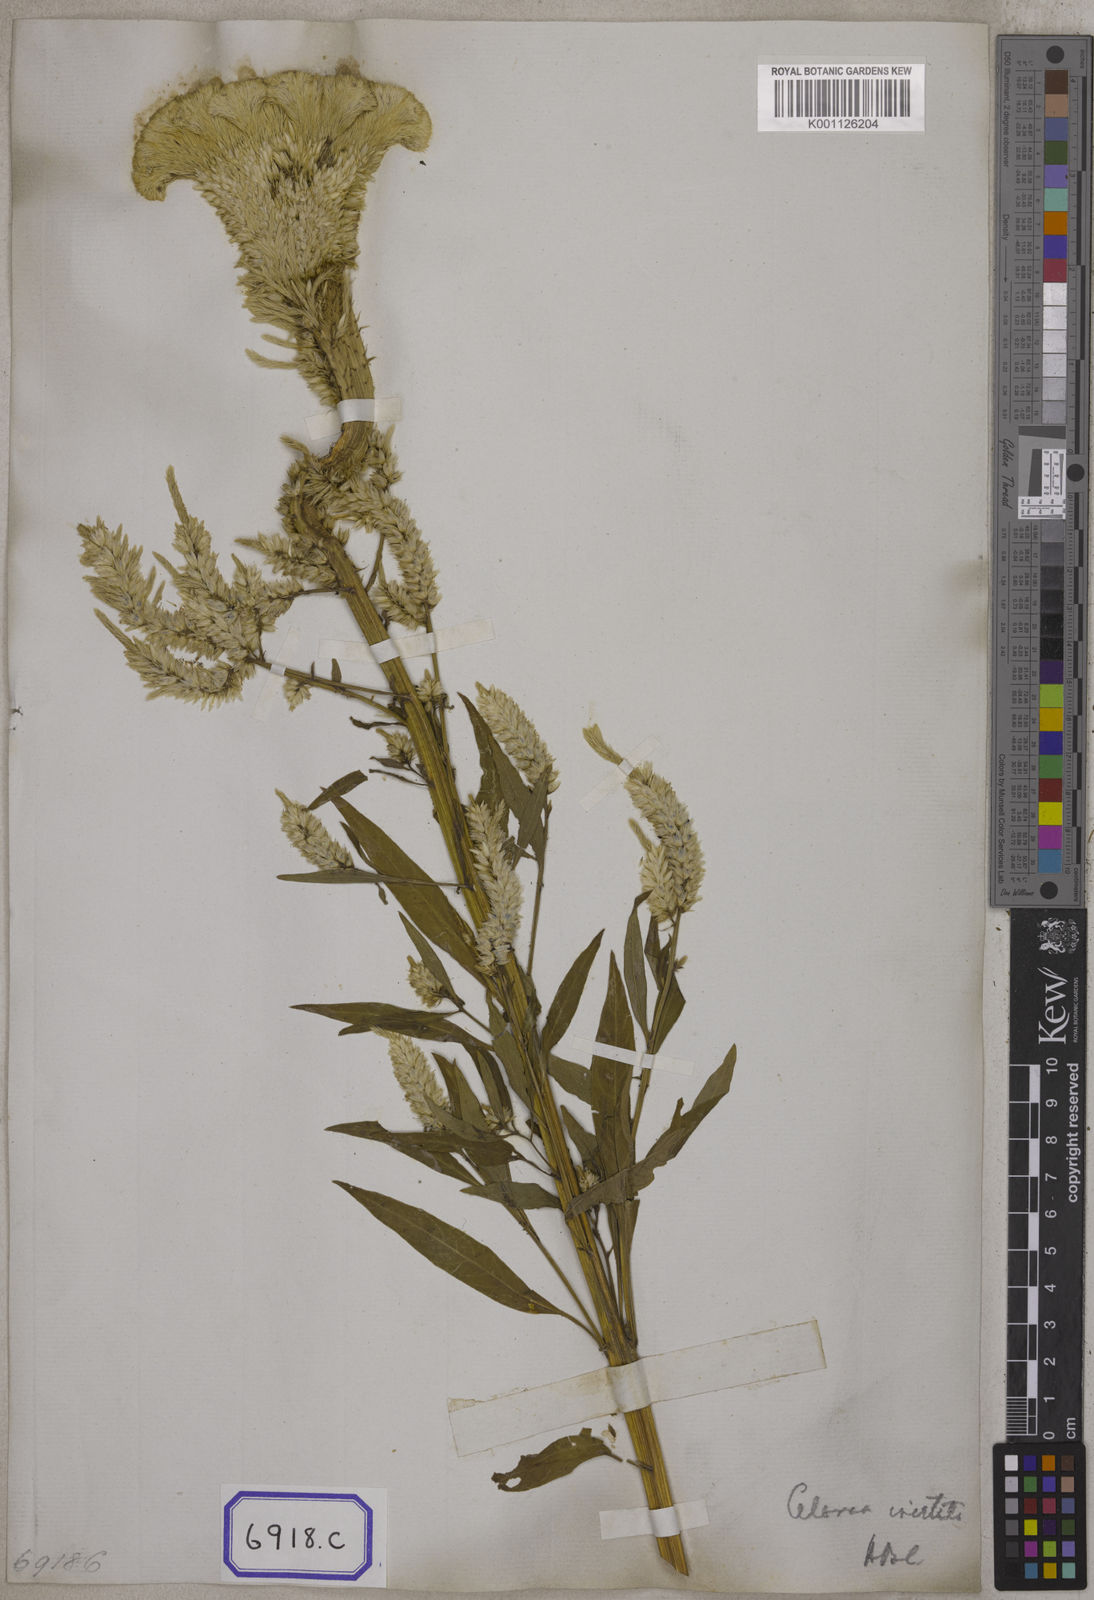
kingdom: Plantae
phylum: Tracheophyta
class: Magnoliopsida
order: Caryophyllales
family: Amaranthaceae
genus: Celosia
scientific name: Celosia argentea
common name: Feather cockscomb
